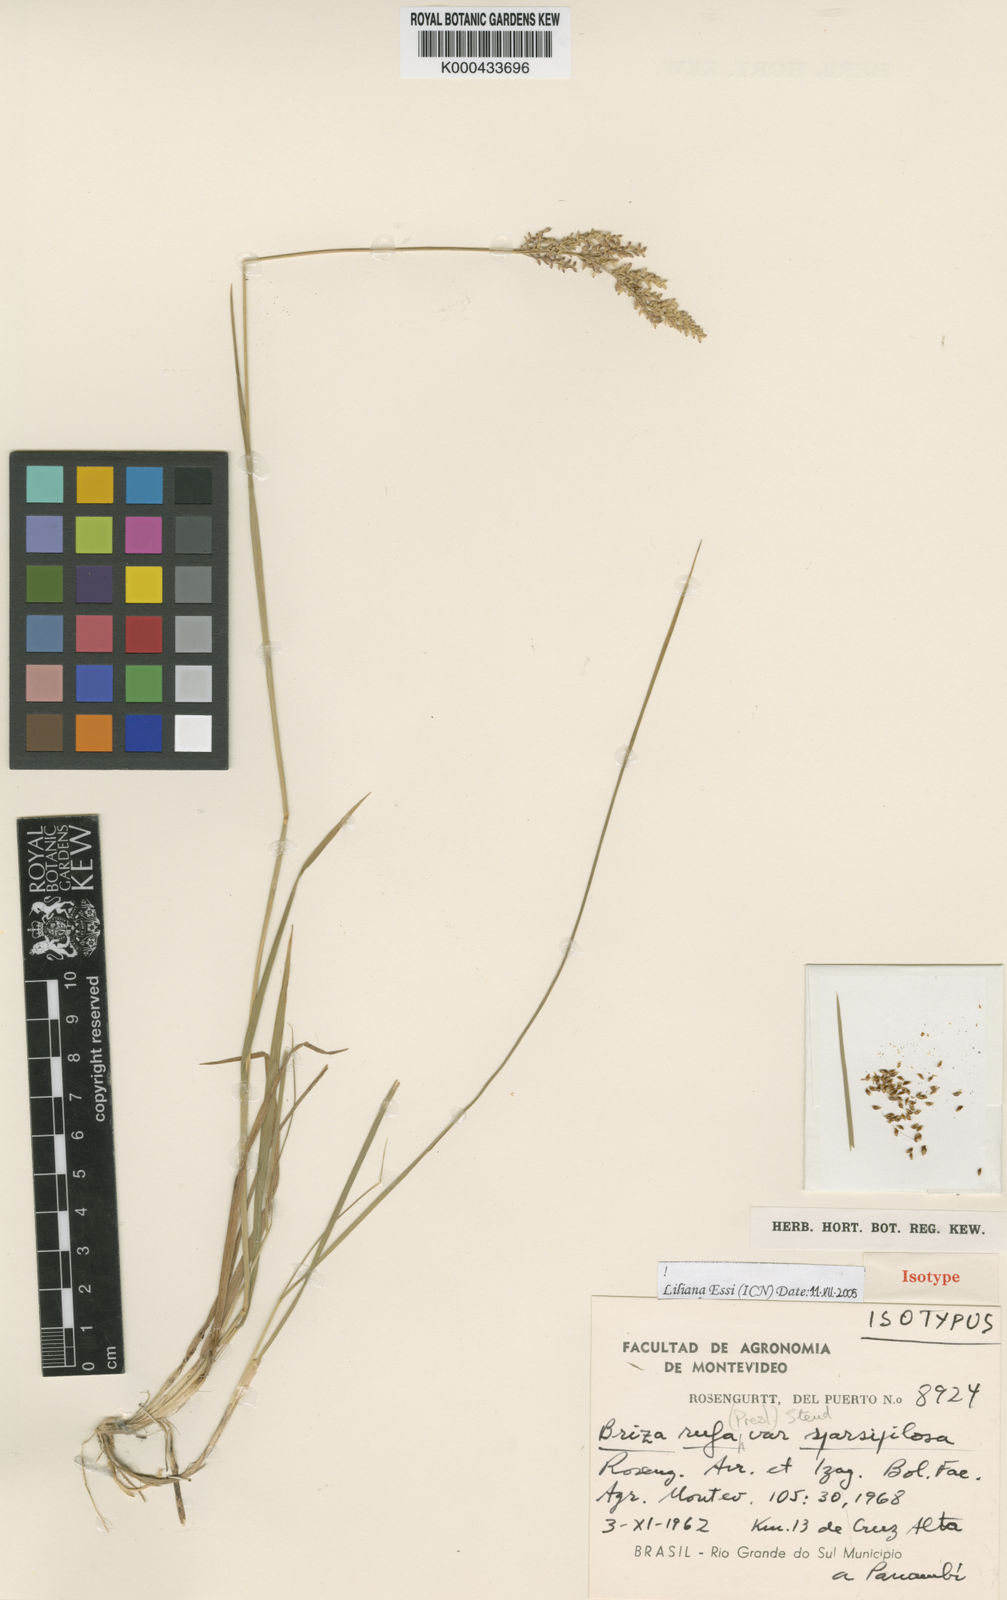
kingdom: Plantae
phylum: Tracheophyta
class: Liliopsida
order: Poales
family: Poaceae
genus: Lombardochloa
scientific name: Lombardochloa rufa
